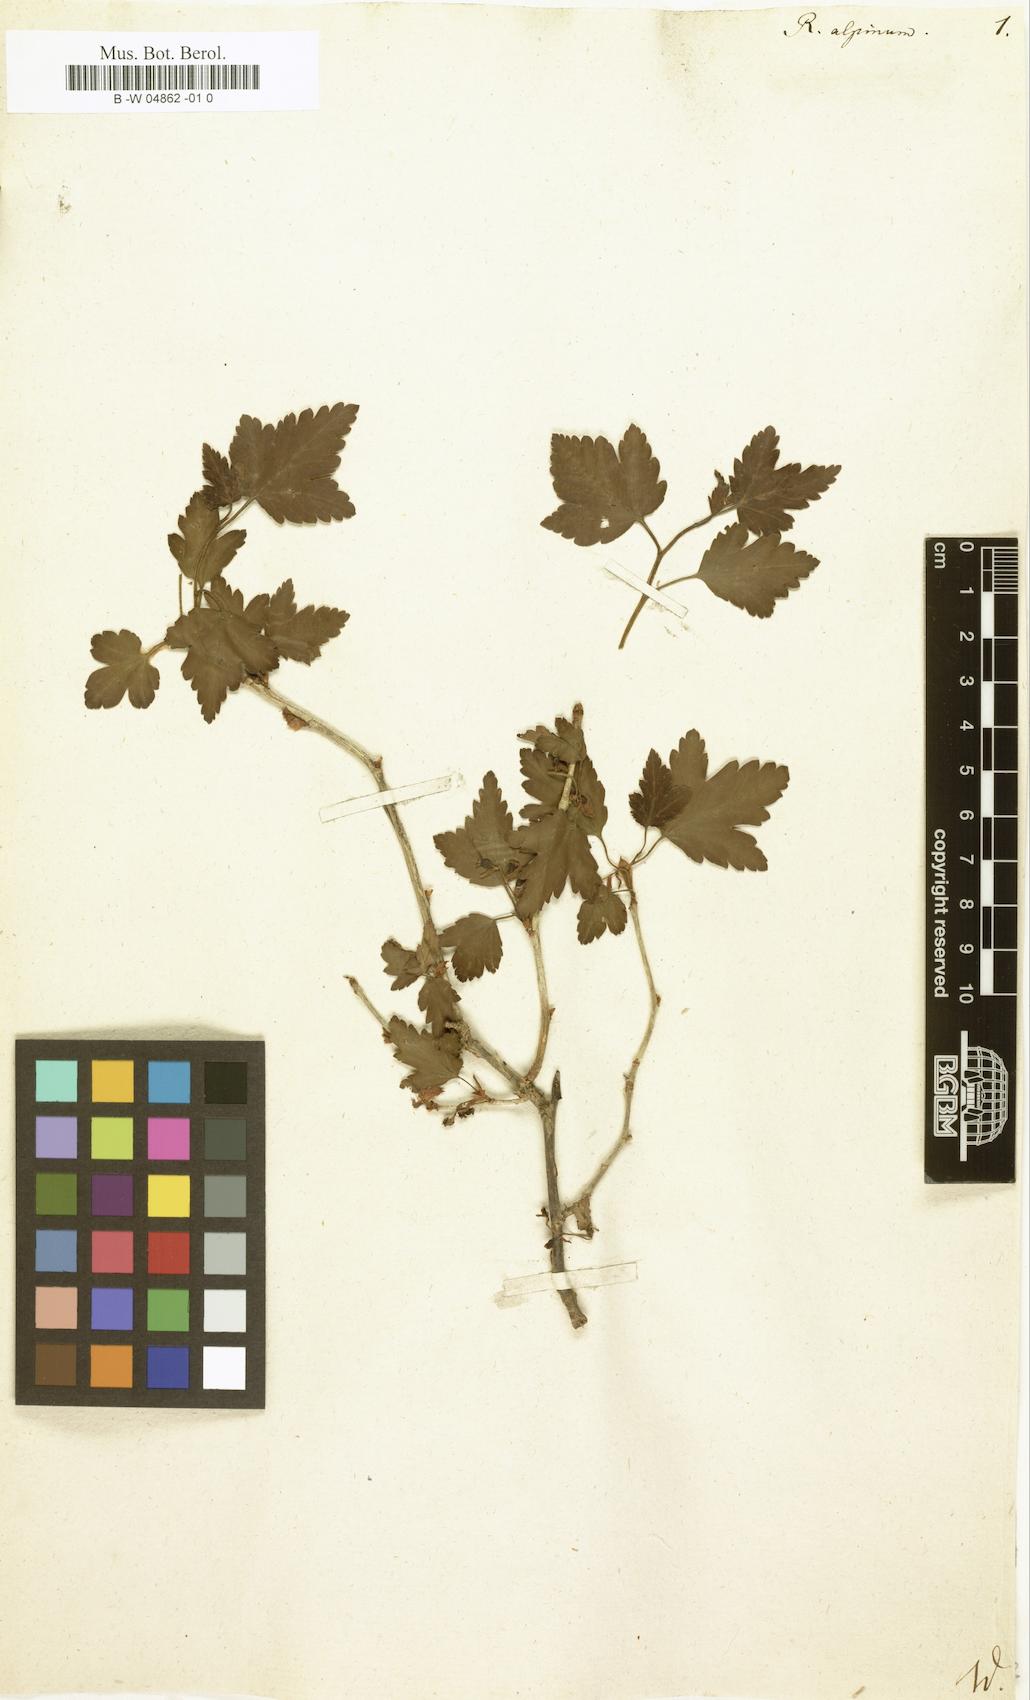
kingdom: Plantae
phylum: Tracheophyta
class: Magnoliopsida
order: Saxifragales
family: Grossulariaceae
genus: Ribes
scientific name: Ribes alpinum
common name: Alpine currant
